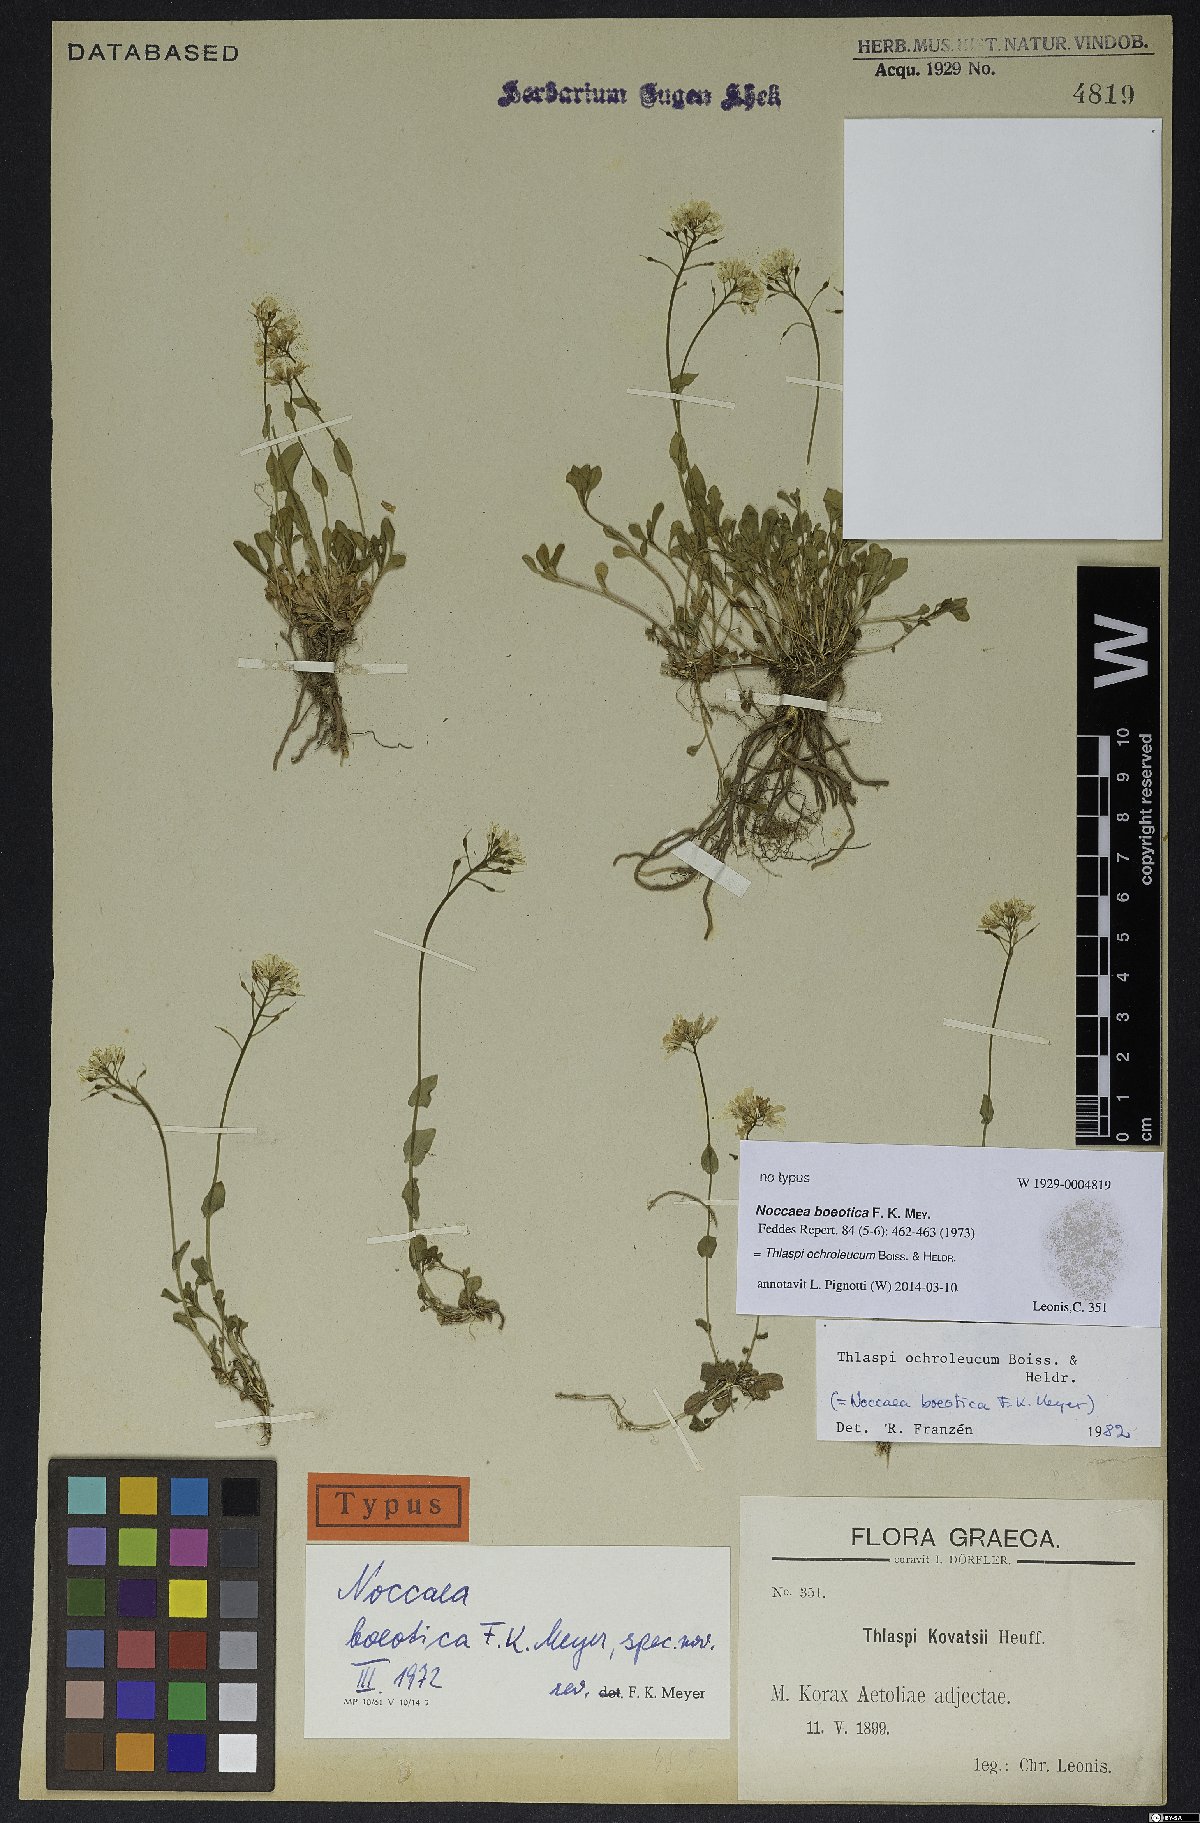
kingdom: Plantae
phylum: Tracheophyta
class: Magnoliopsida
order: Brassicales
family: Brassicaceae
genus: Noccaea
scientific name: Noccaea ochroleuca
